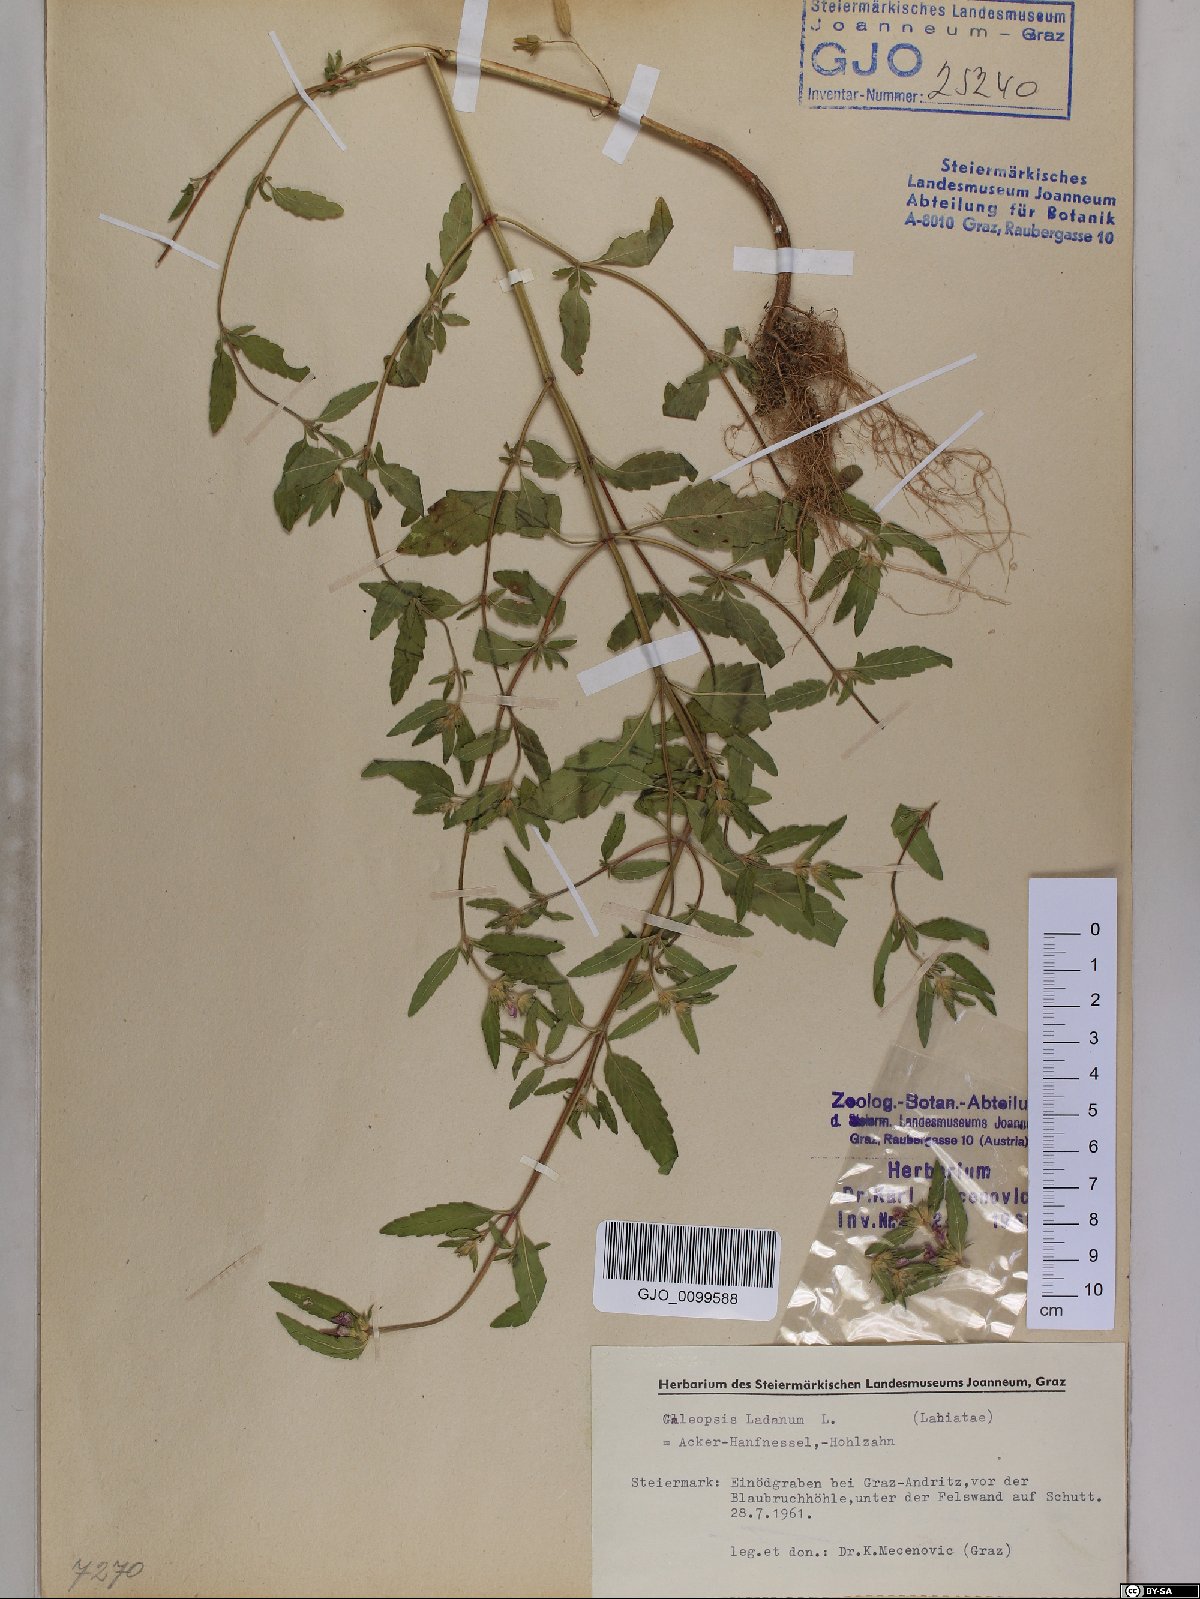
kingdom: Plantae
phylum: Tracheophyta
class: Magnoliopsida
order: Lamiales
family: Lamiaceae
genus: Galeopsis
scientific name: Galeopsis ladanum
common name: Broad-leaved hemp-nettle
